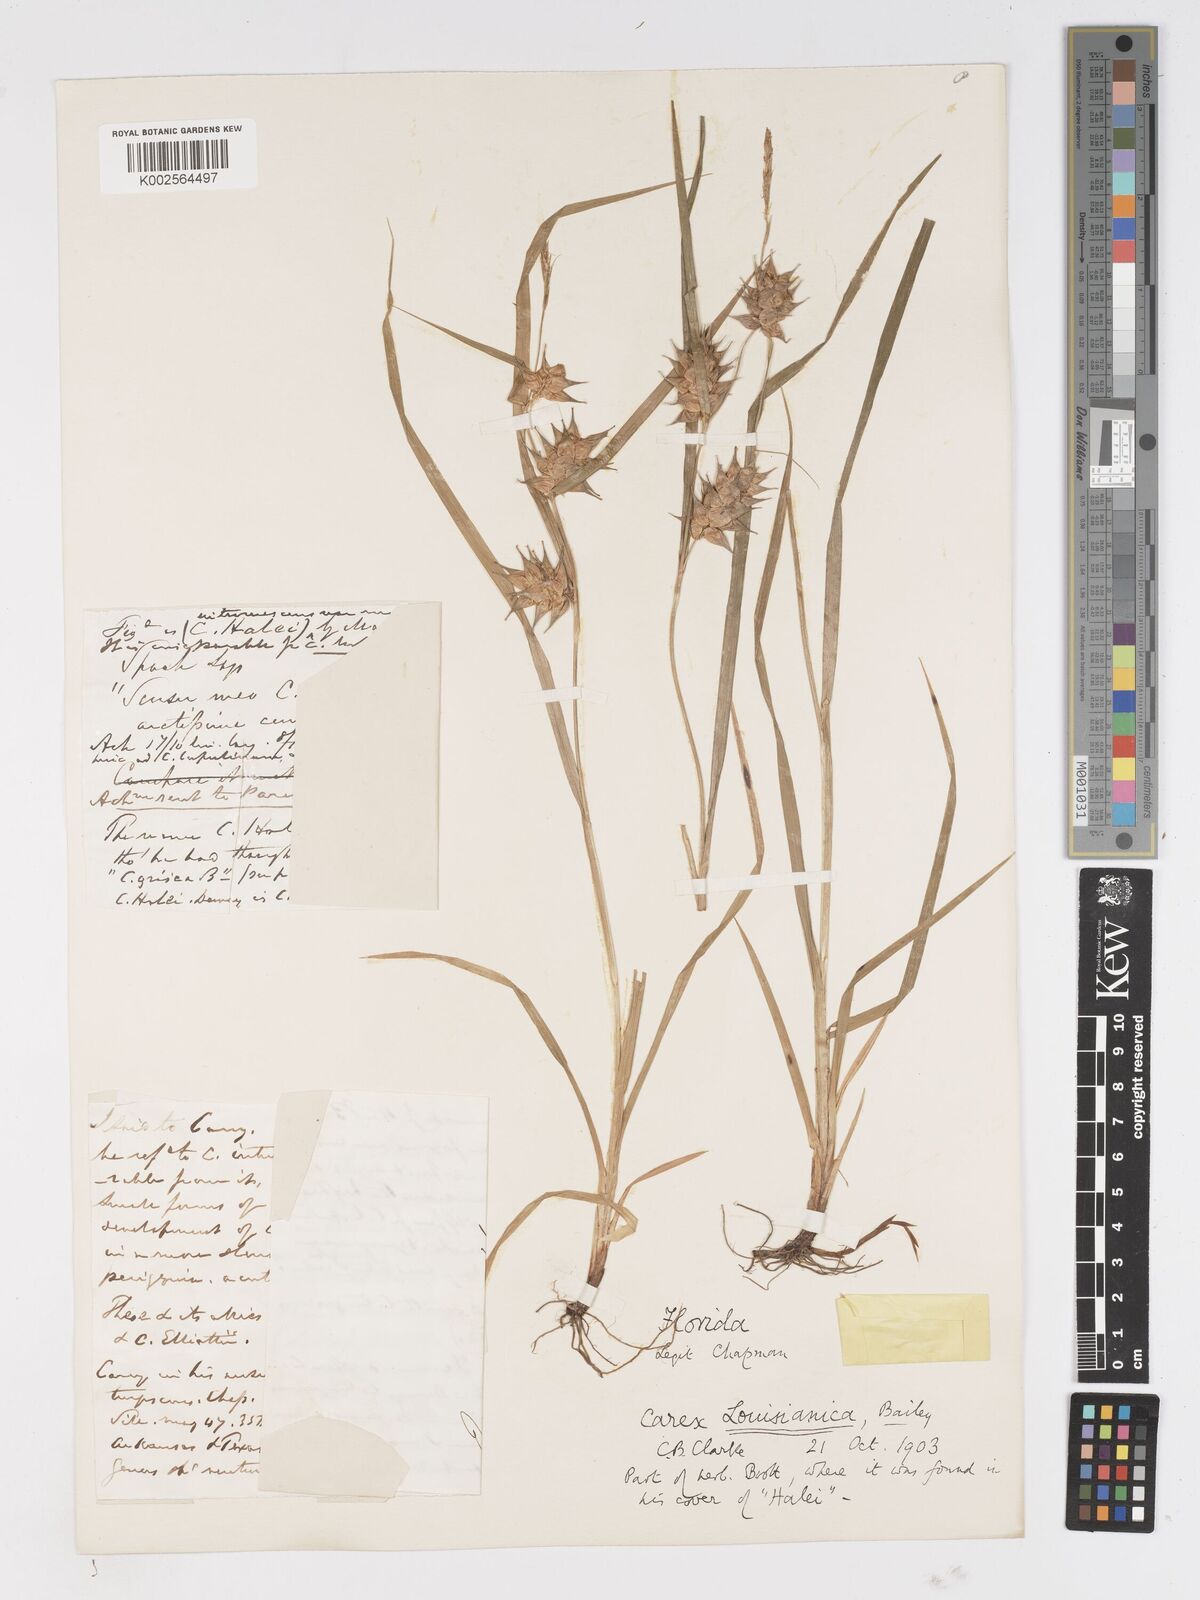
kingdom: Plantae
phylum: Tracheophyta
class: Liliopsida
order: Poales
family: Cyperaceae
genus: Carex
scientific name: Carex louisianica
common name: Louisiana sedge
